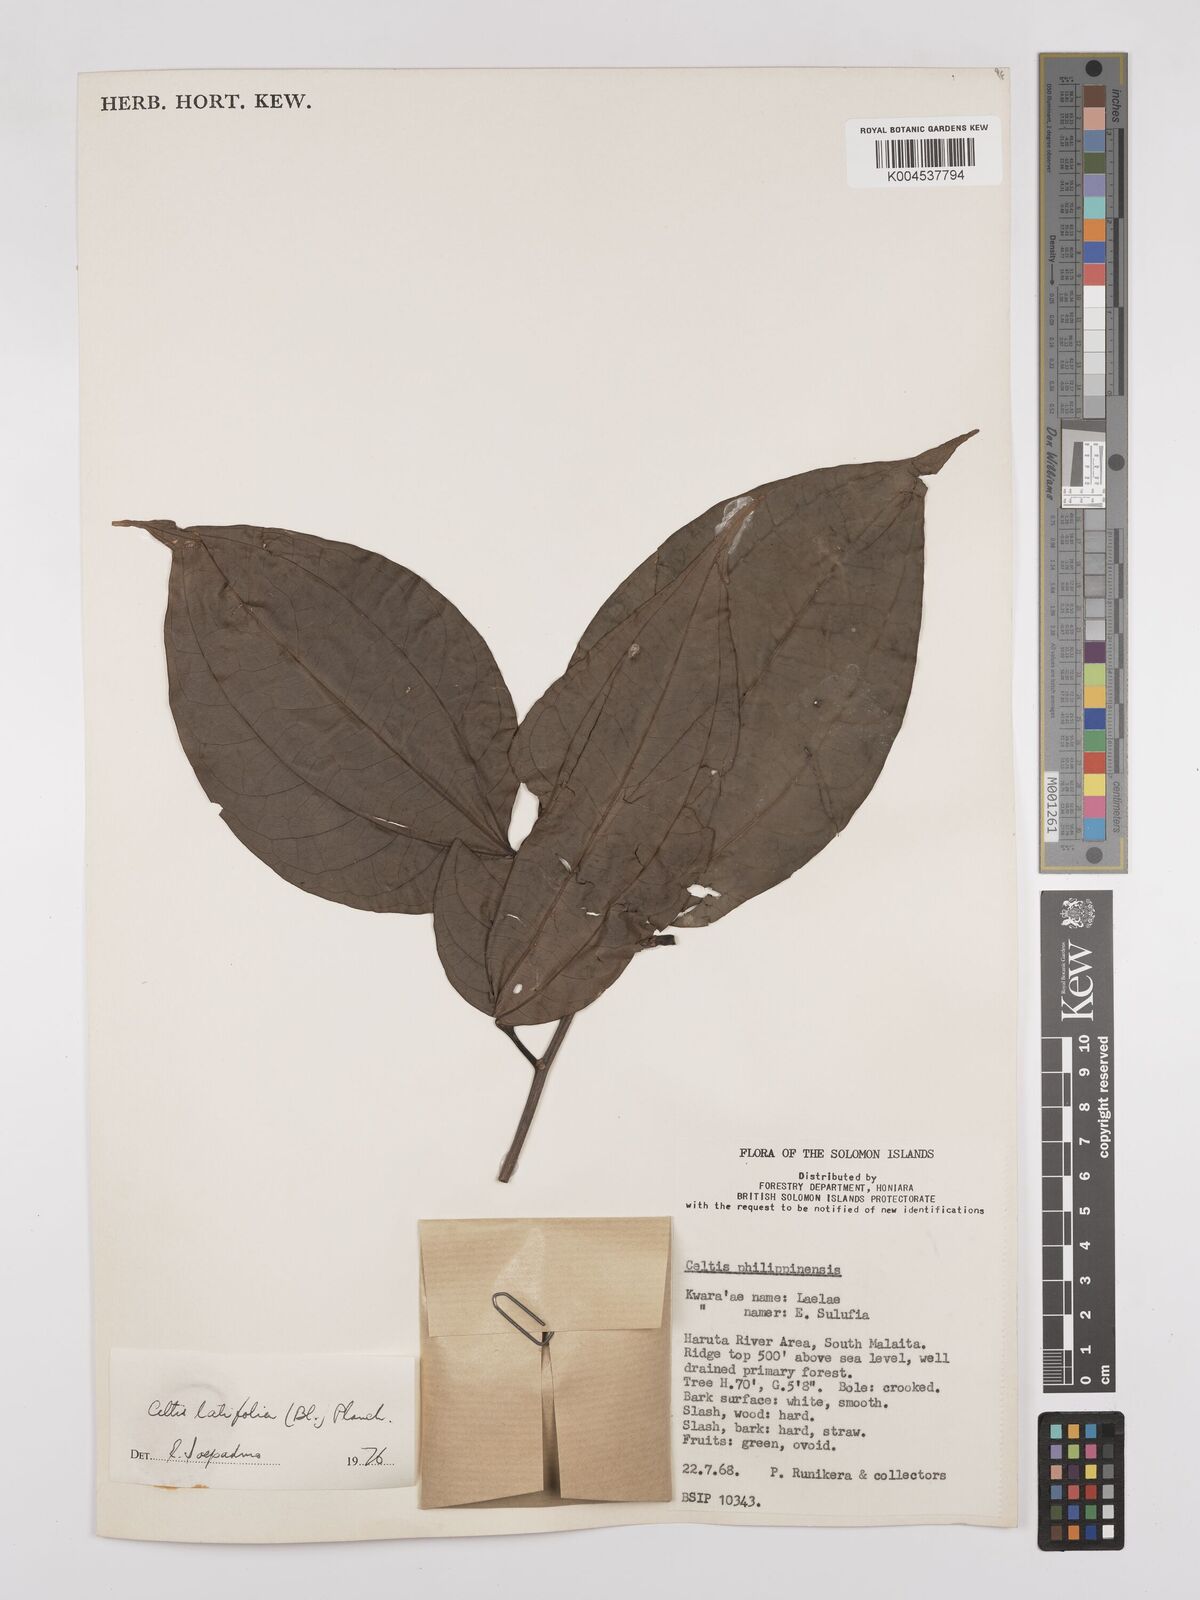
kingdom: Plantae
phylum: Tracheophyta
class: Magnoliopsida
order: Rosales
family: Cannabaceae
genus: Celtis
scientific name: Celtis latifolia
